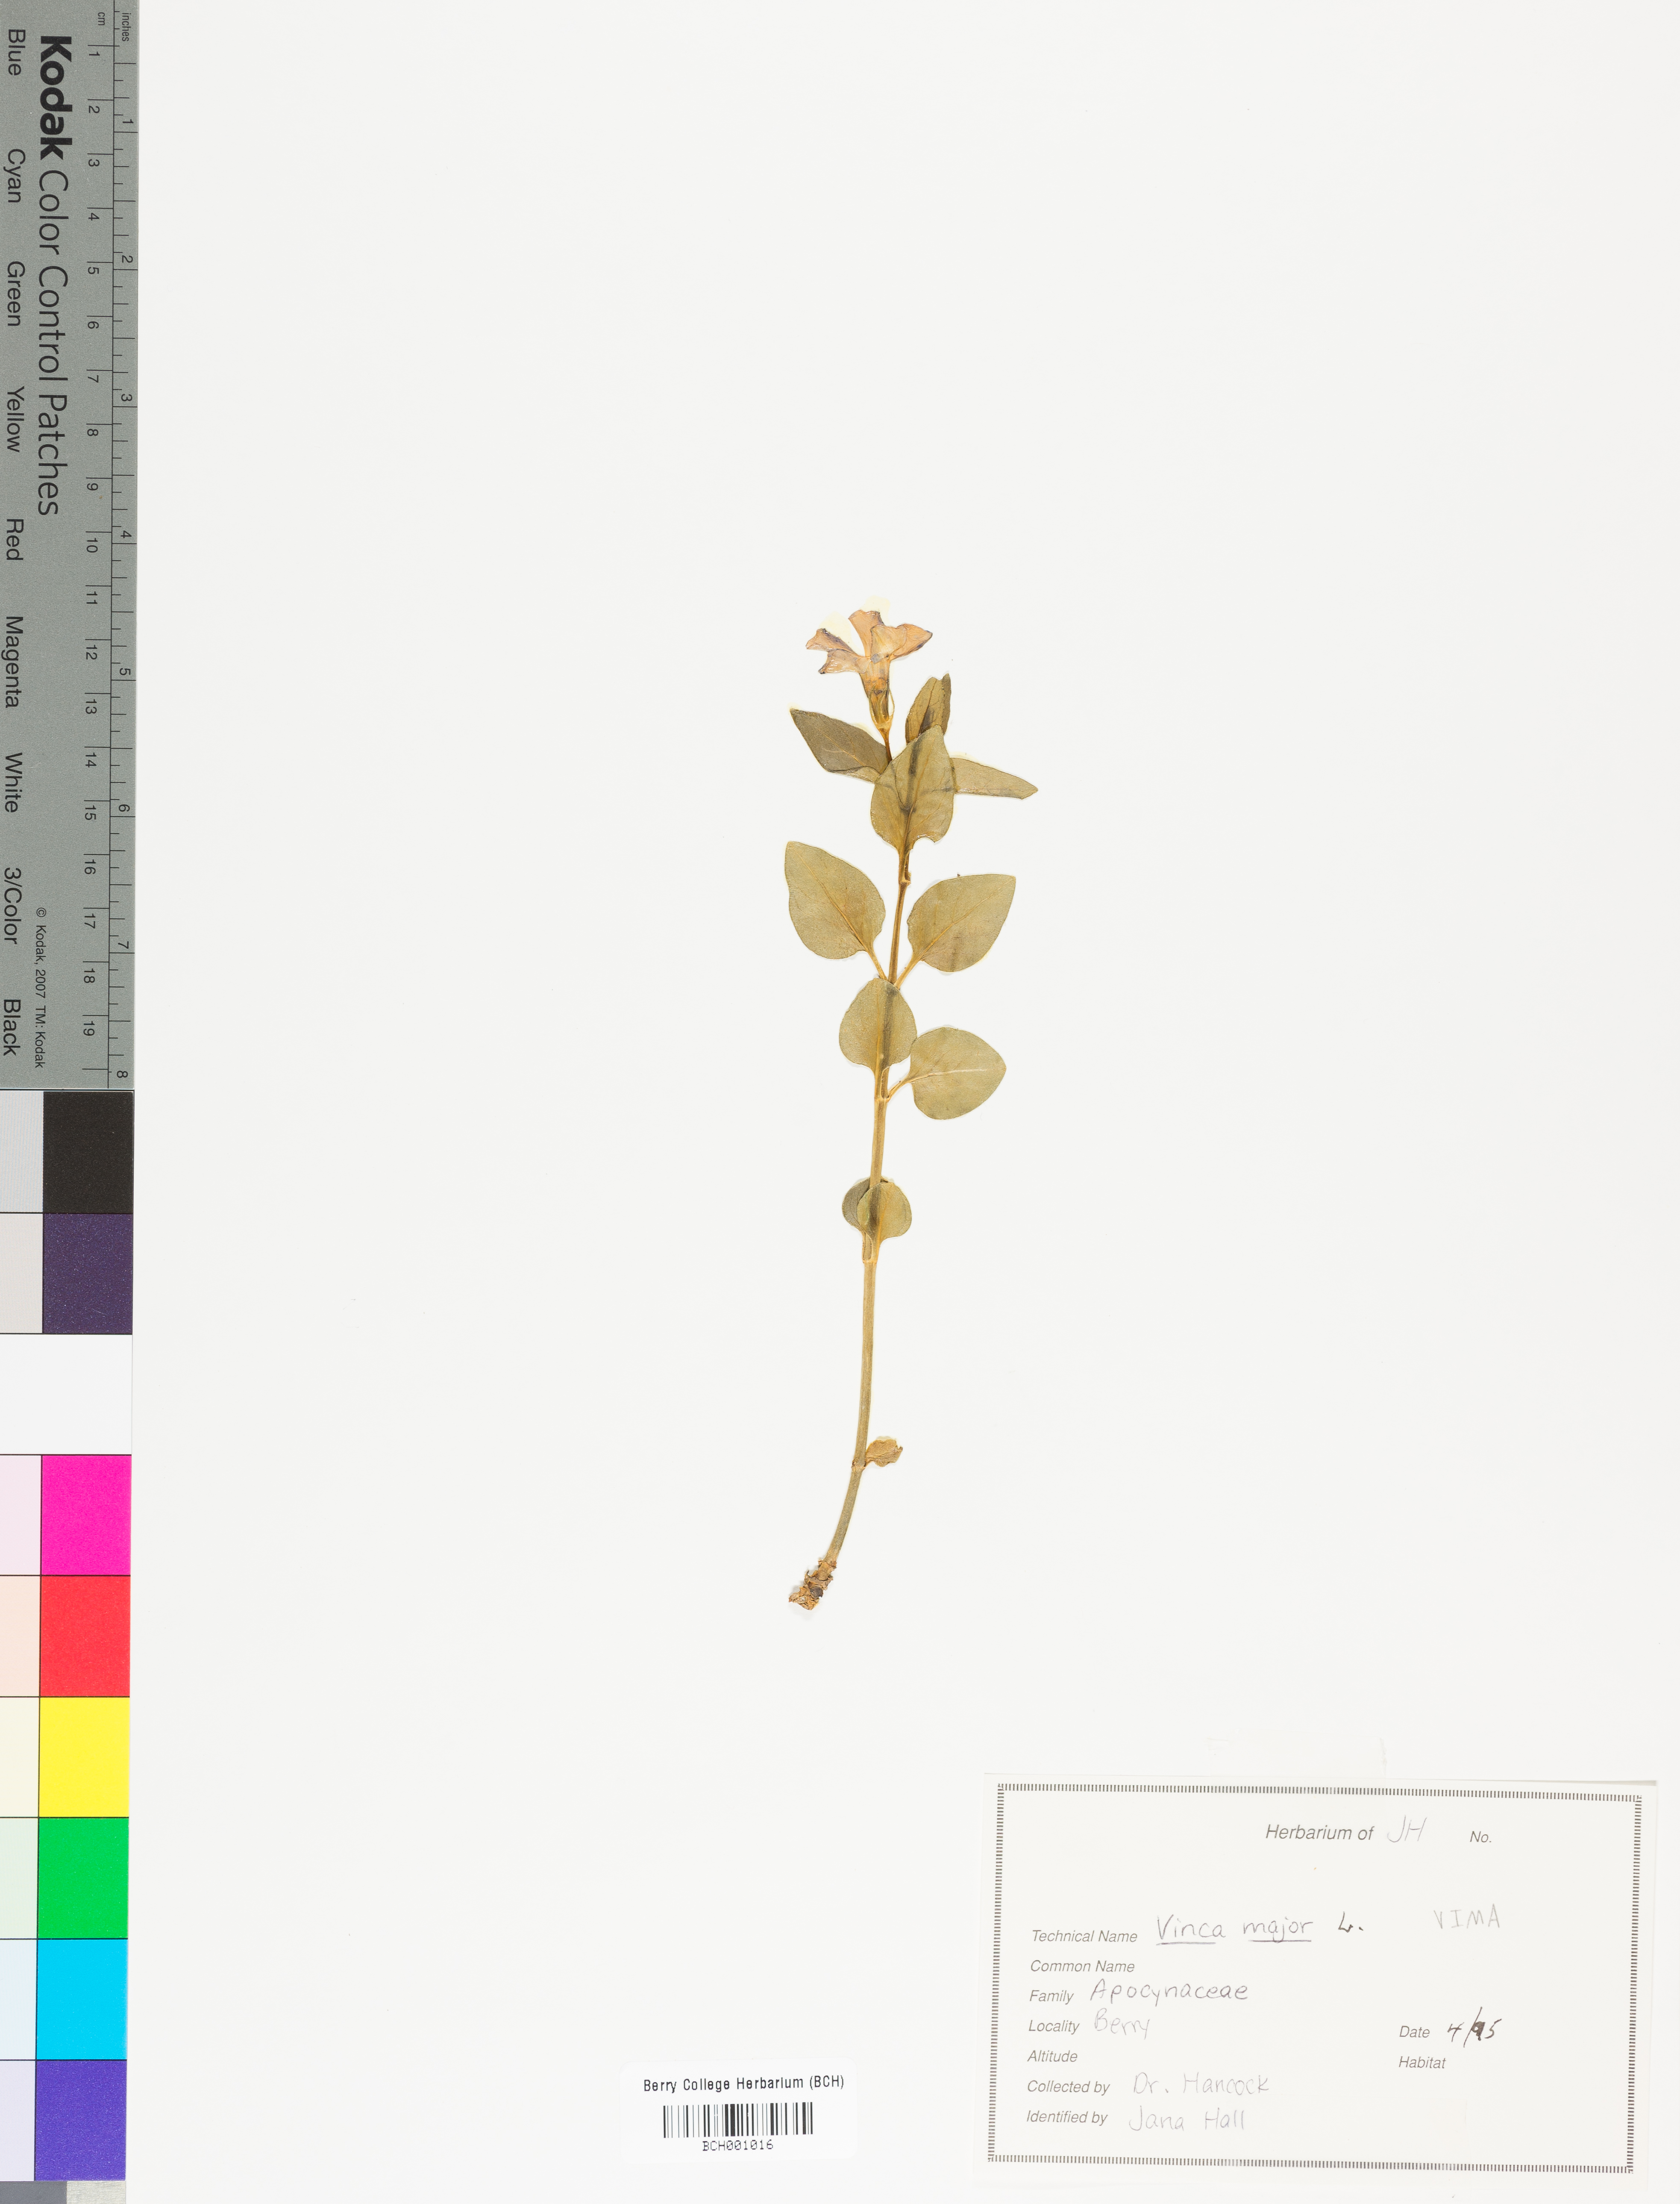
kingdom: Plantae
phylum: Tracheophyta
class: Magnoliopsida
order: Gentianales
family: Apocynaceae
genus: Vinca
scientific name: Vinca major
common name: Greater periwinkle
